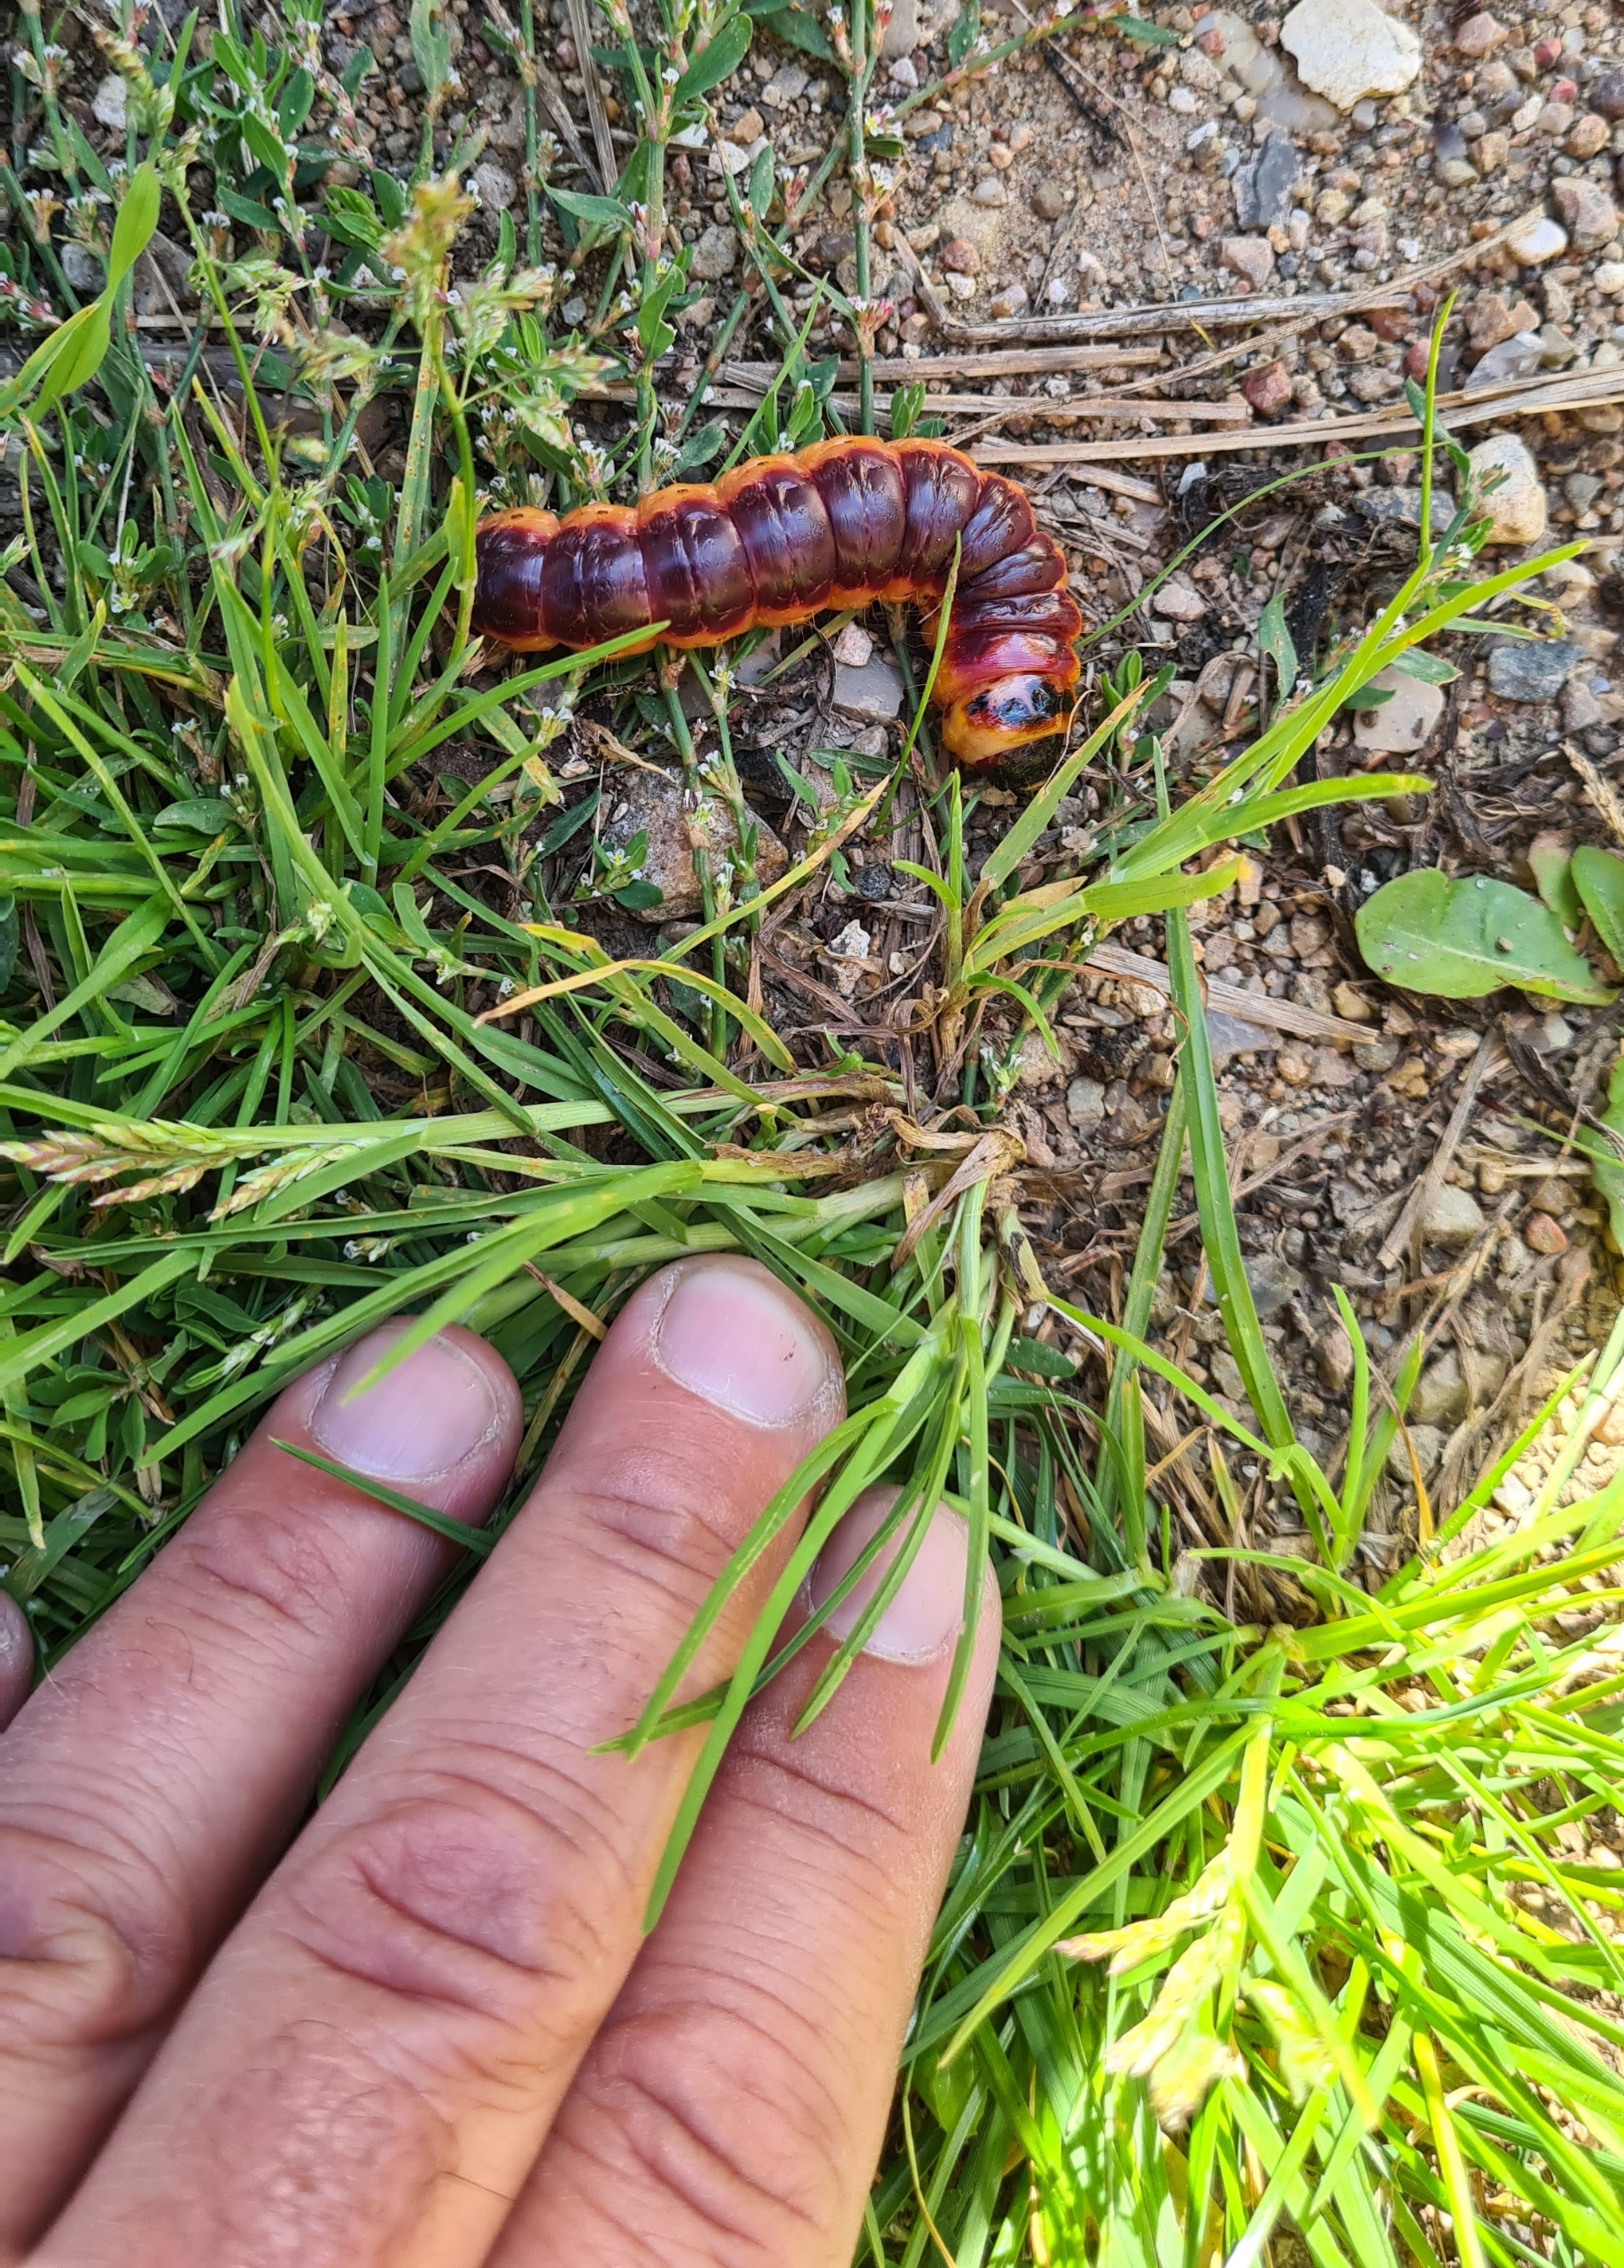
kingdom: Animalia
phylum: Arthropoda
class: Insecta
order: Lepidoptera
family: Cossidae
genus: Cossus
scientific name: Cossus cossus
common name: Pileborer
